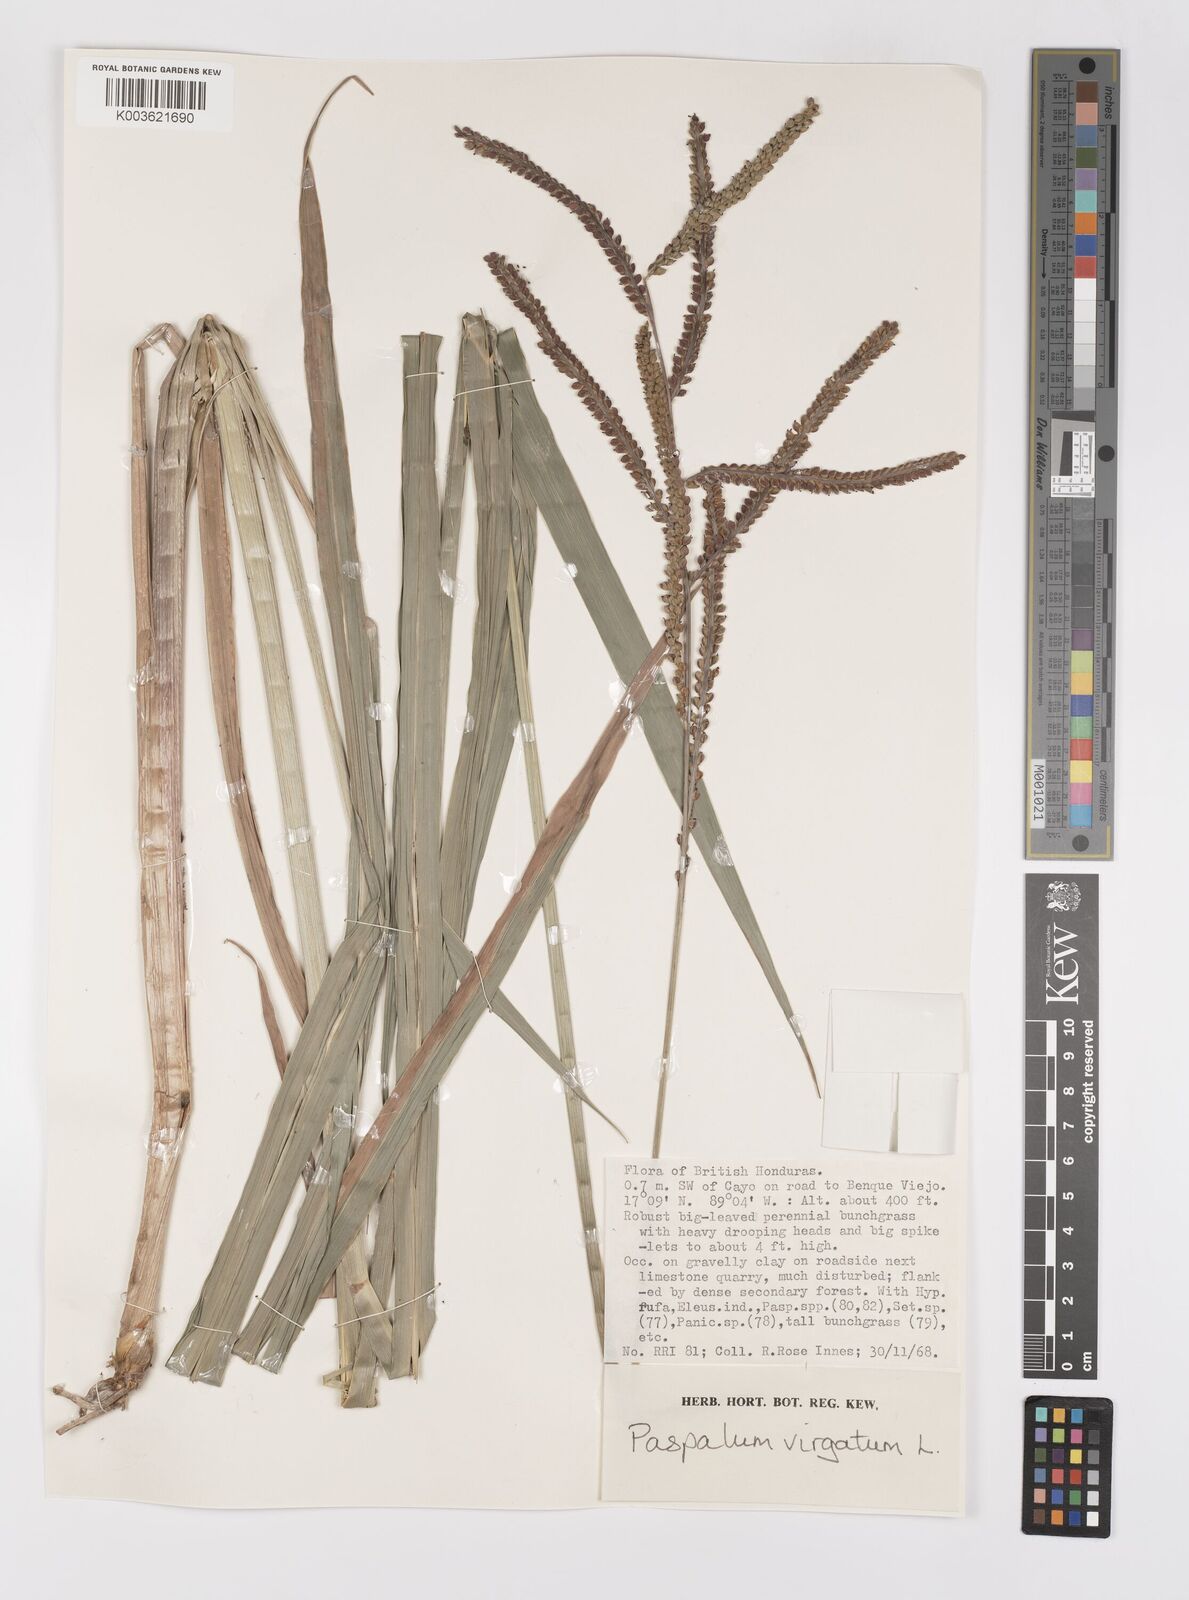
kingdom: Plantae
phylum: Tracheophyta
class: Liliopsida
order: Poales
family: Poaceae
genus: Paspalum
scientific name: Paspalum virgatum
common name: Talquezal
